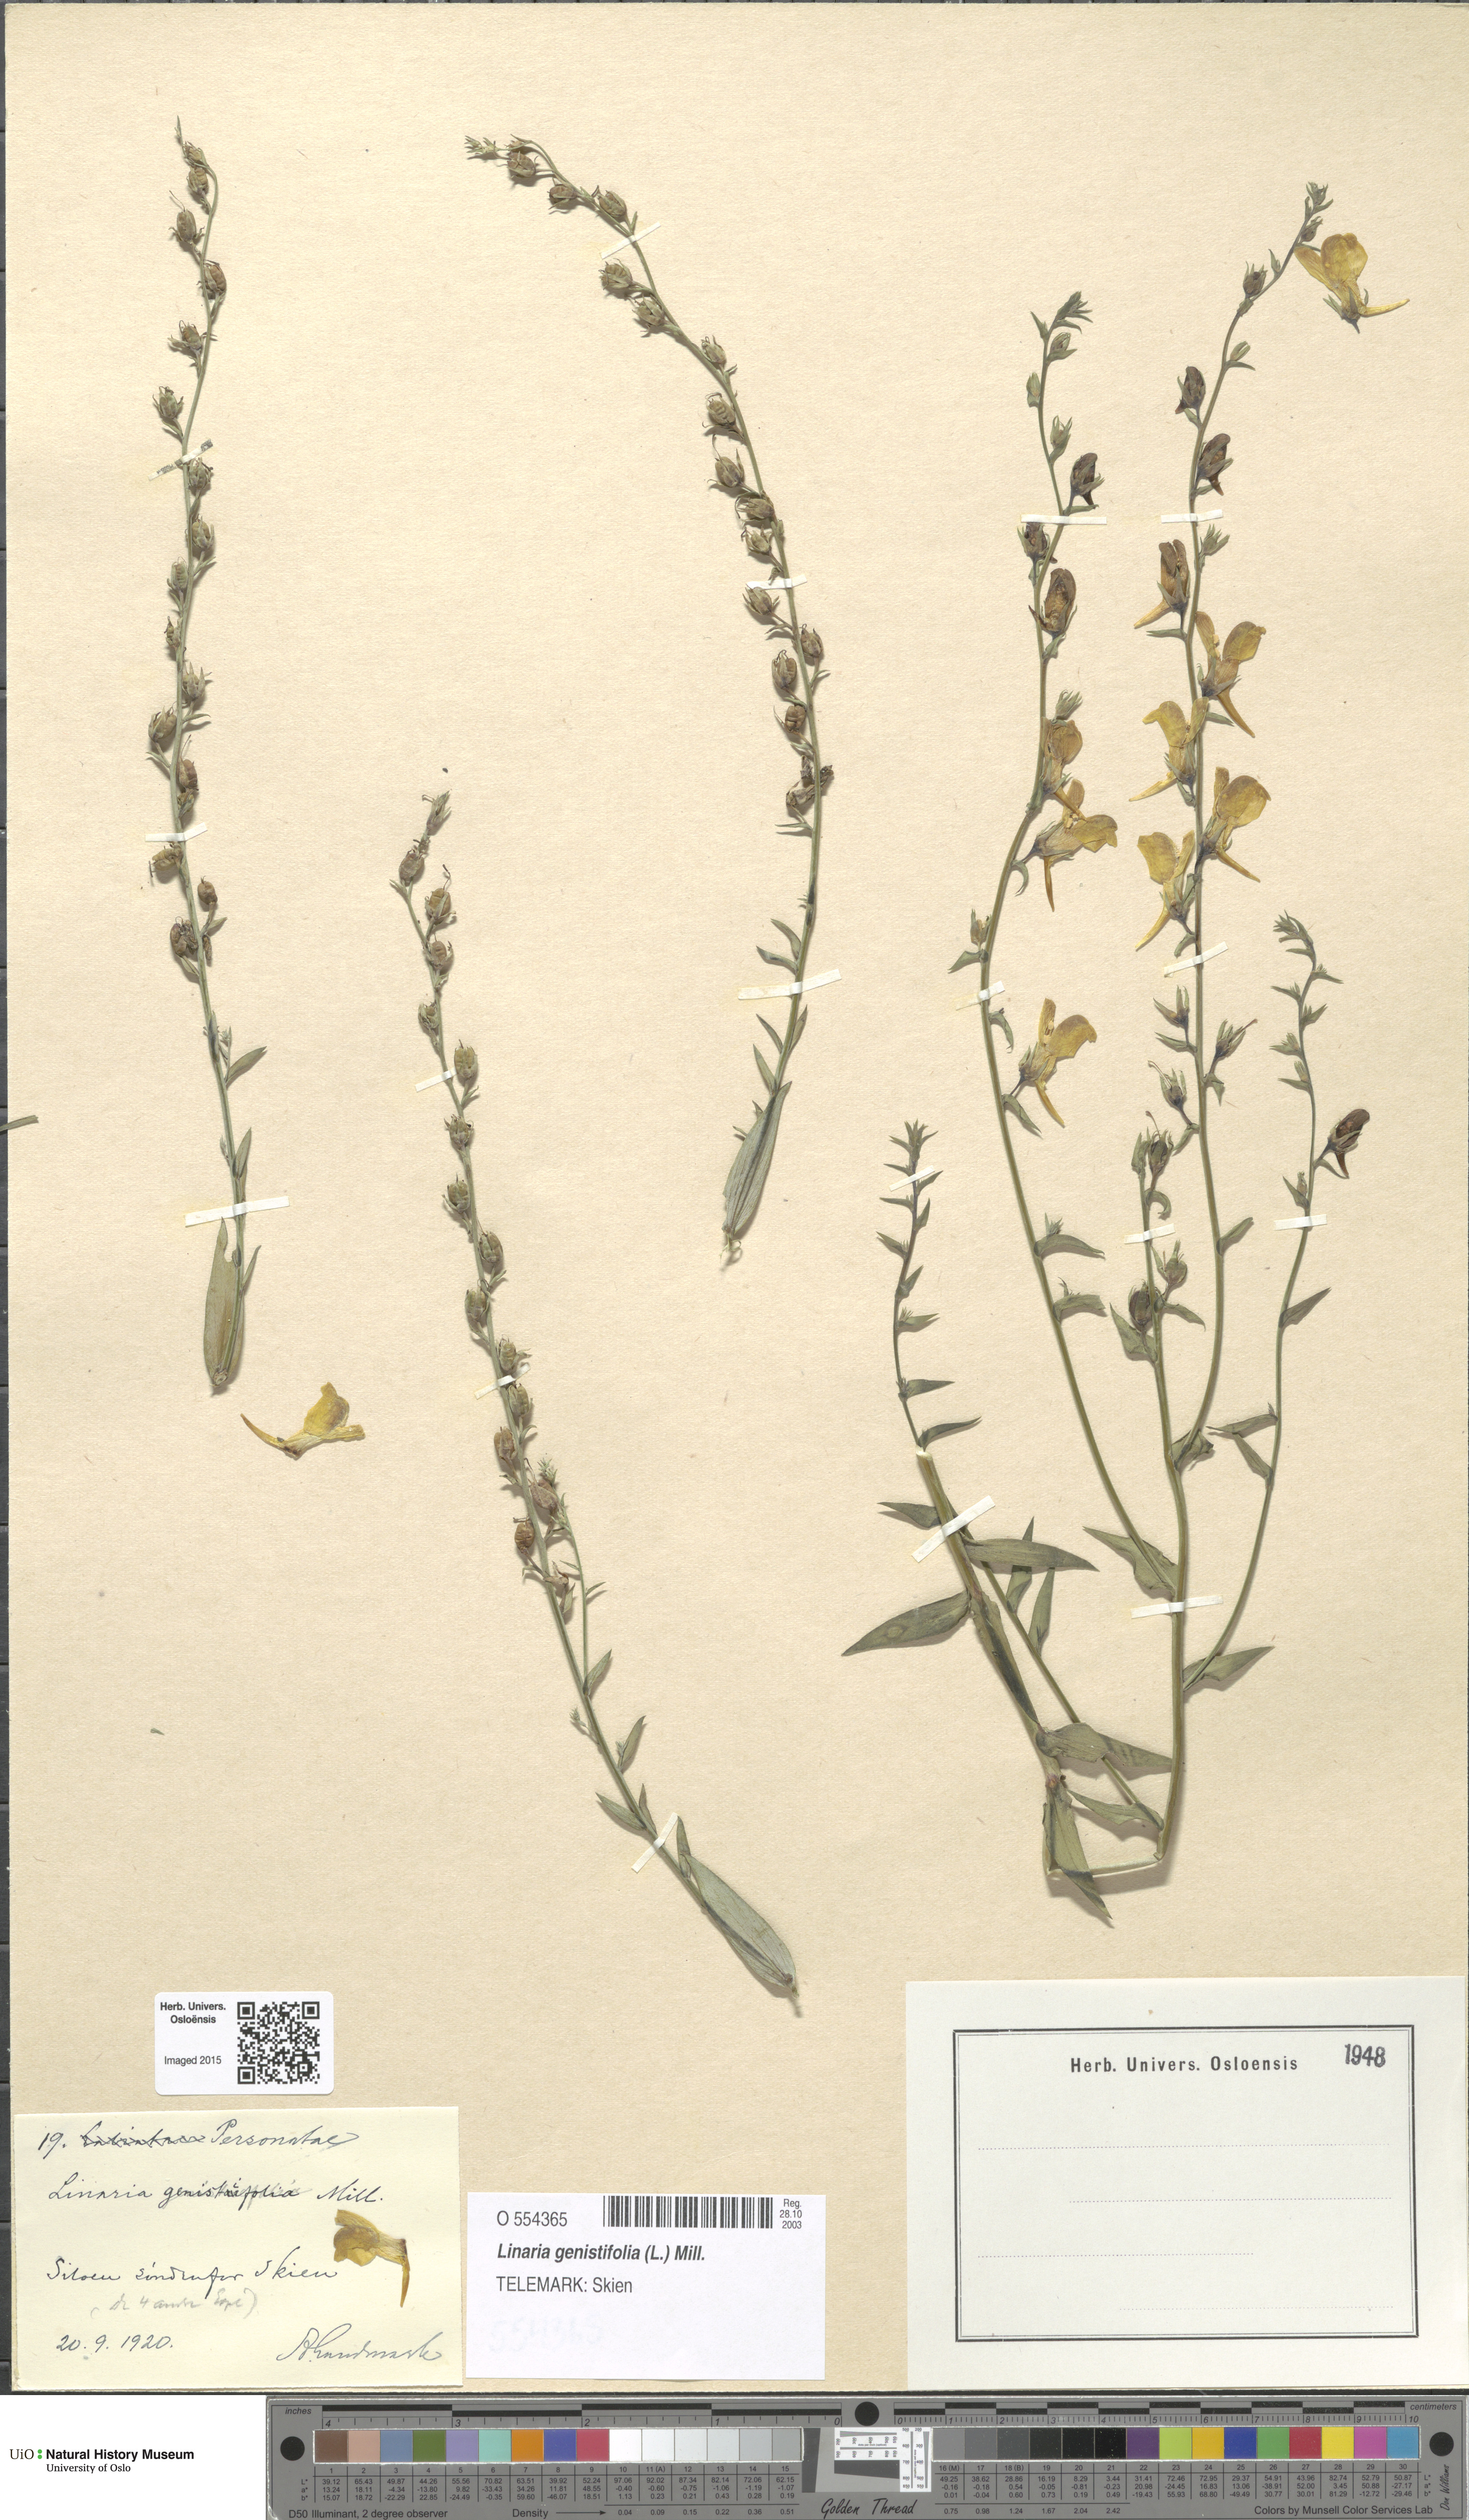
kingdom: Plantae
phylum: Tracheophyta
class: Magnoliopsida
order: Lamiales
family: Plantaginaceae
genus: Linaria
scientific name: Linaria genistifolia
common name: Broomleaf toadflax
